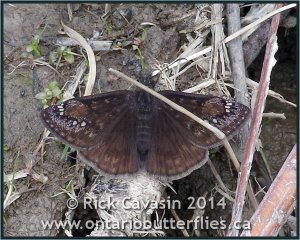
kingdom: Animalia
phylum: Arthropoda
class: Insecta
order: Lepidoptera
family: Hesperiidae
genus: Gesta
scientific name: Gesta
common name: Juvenal's Duskywing
